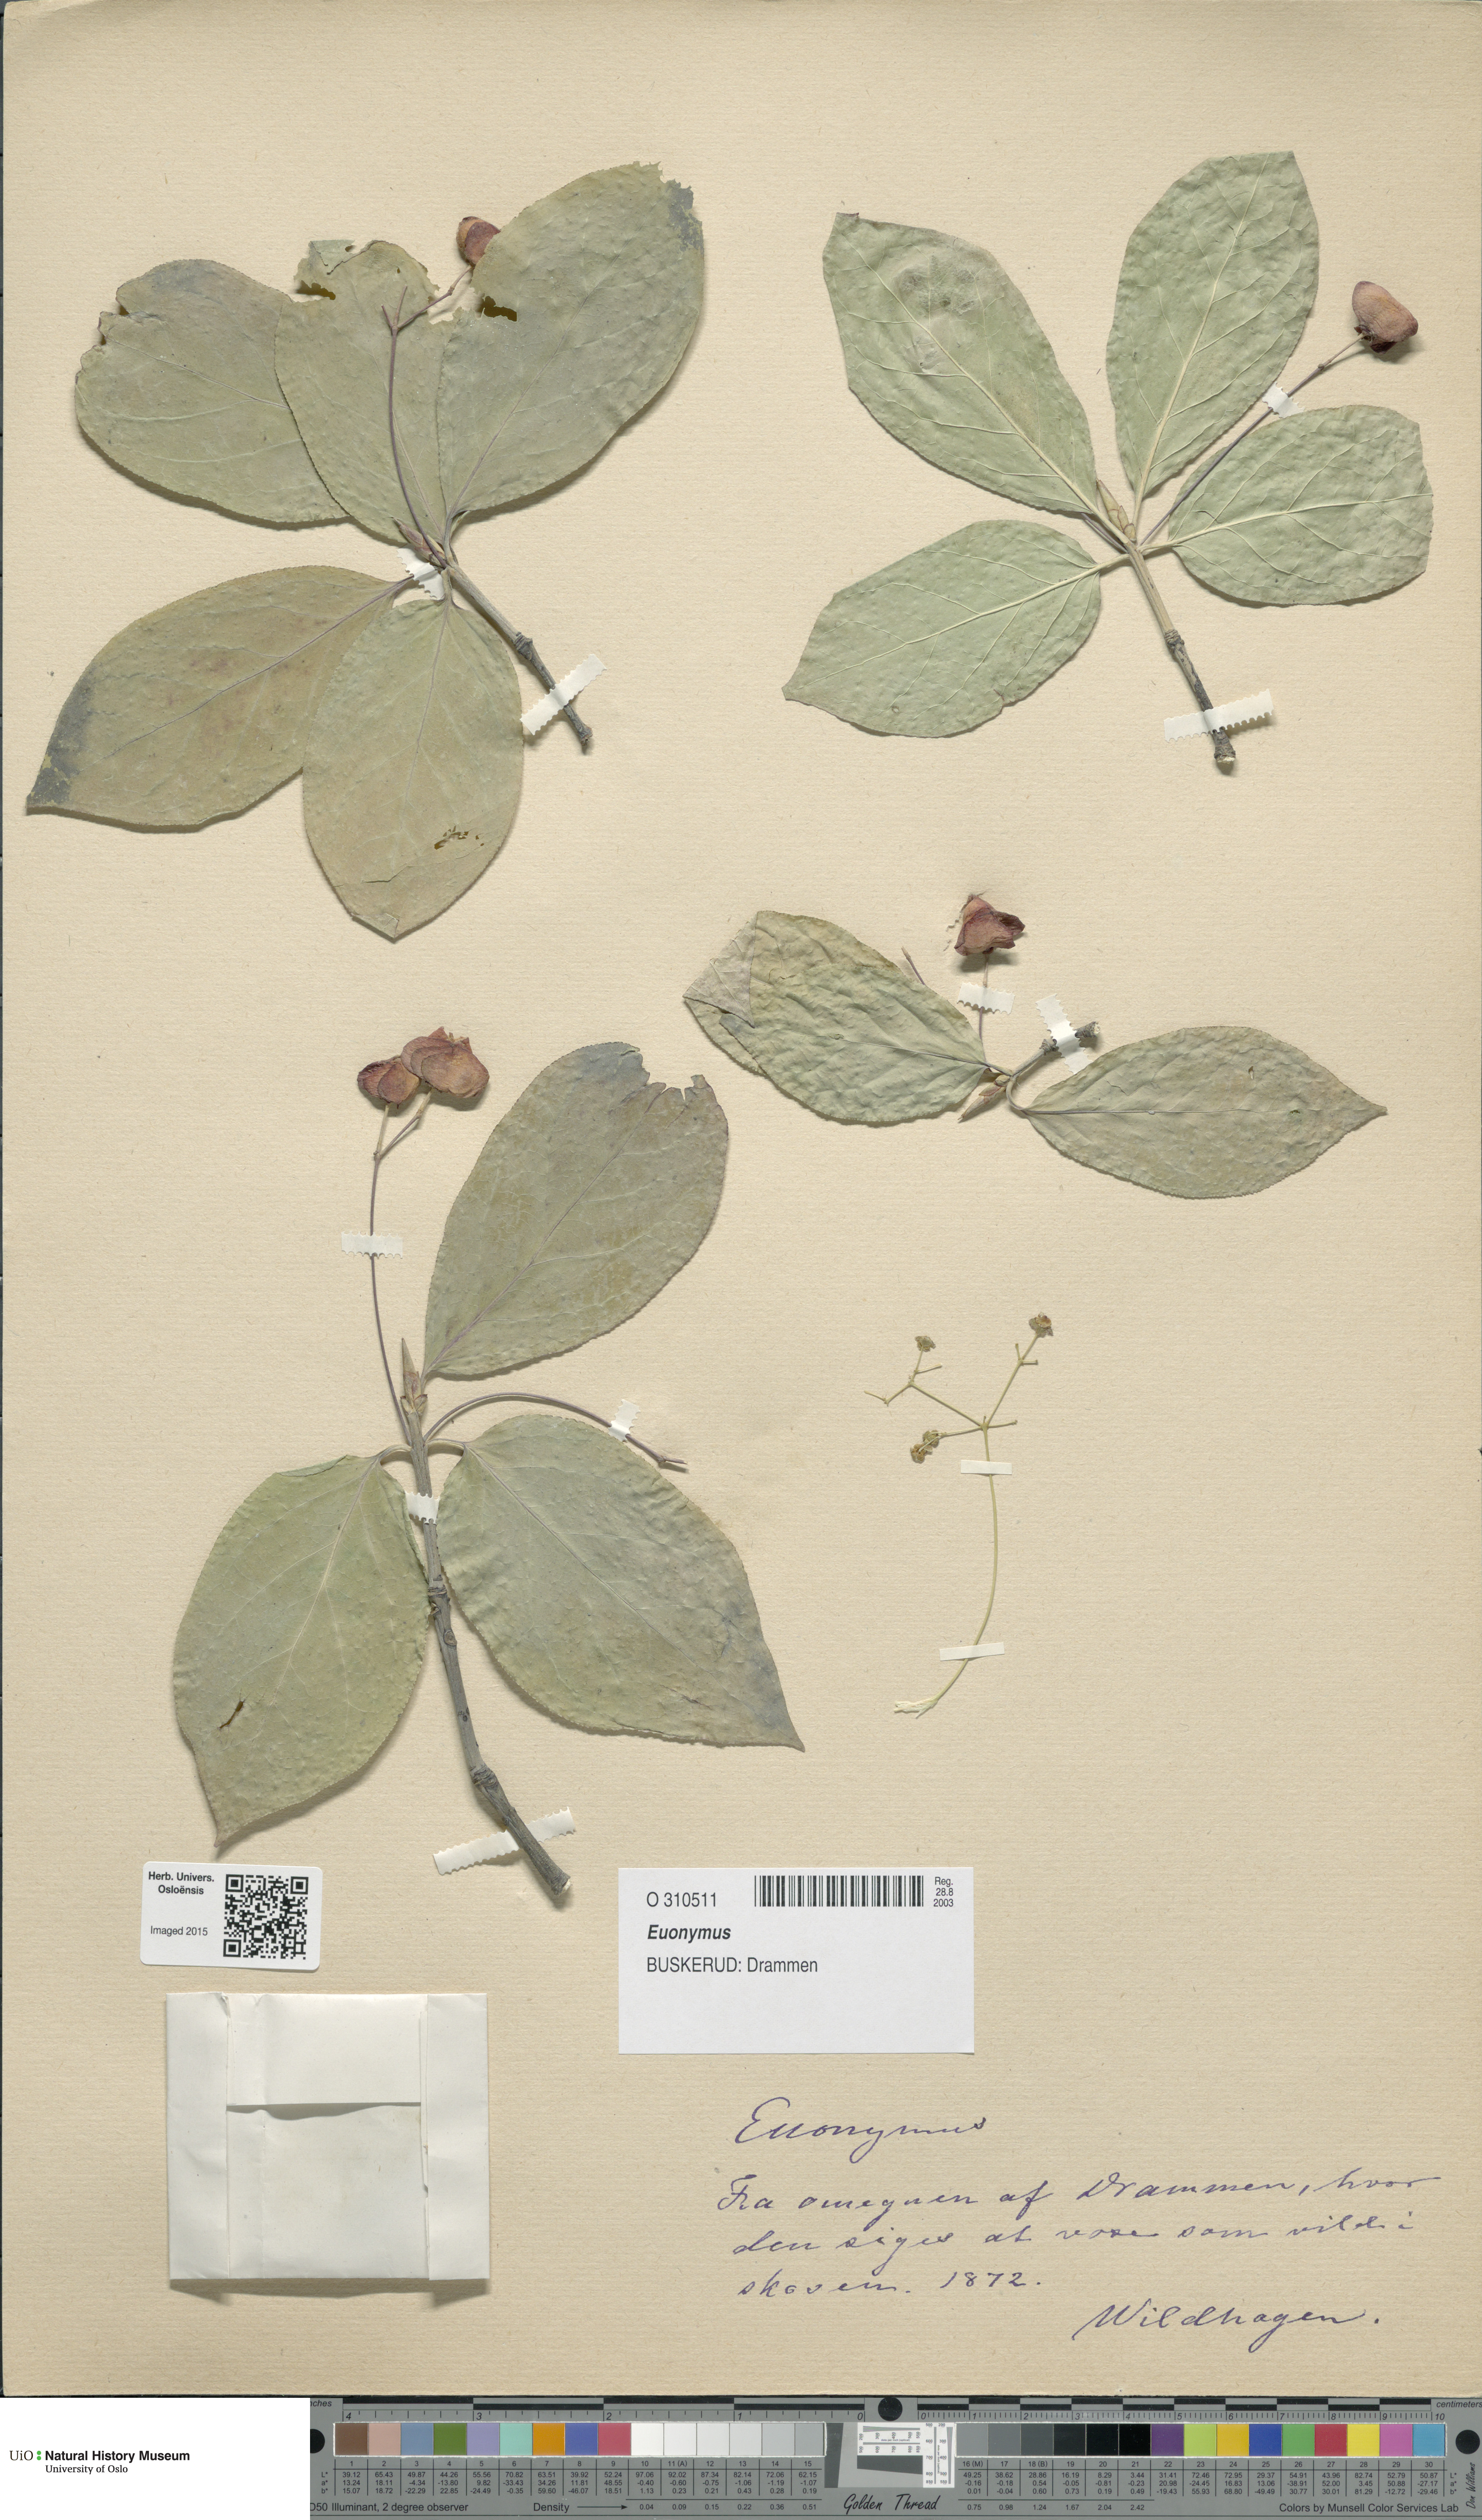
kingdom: Plantae
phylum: Tracheophyta
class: Magnoliopsida
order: Celastrales
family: Celastraceae
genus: Euonymus
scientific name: Euonymus
